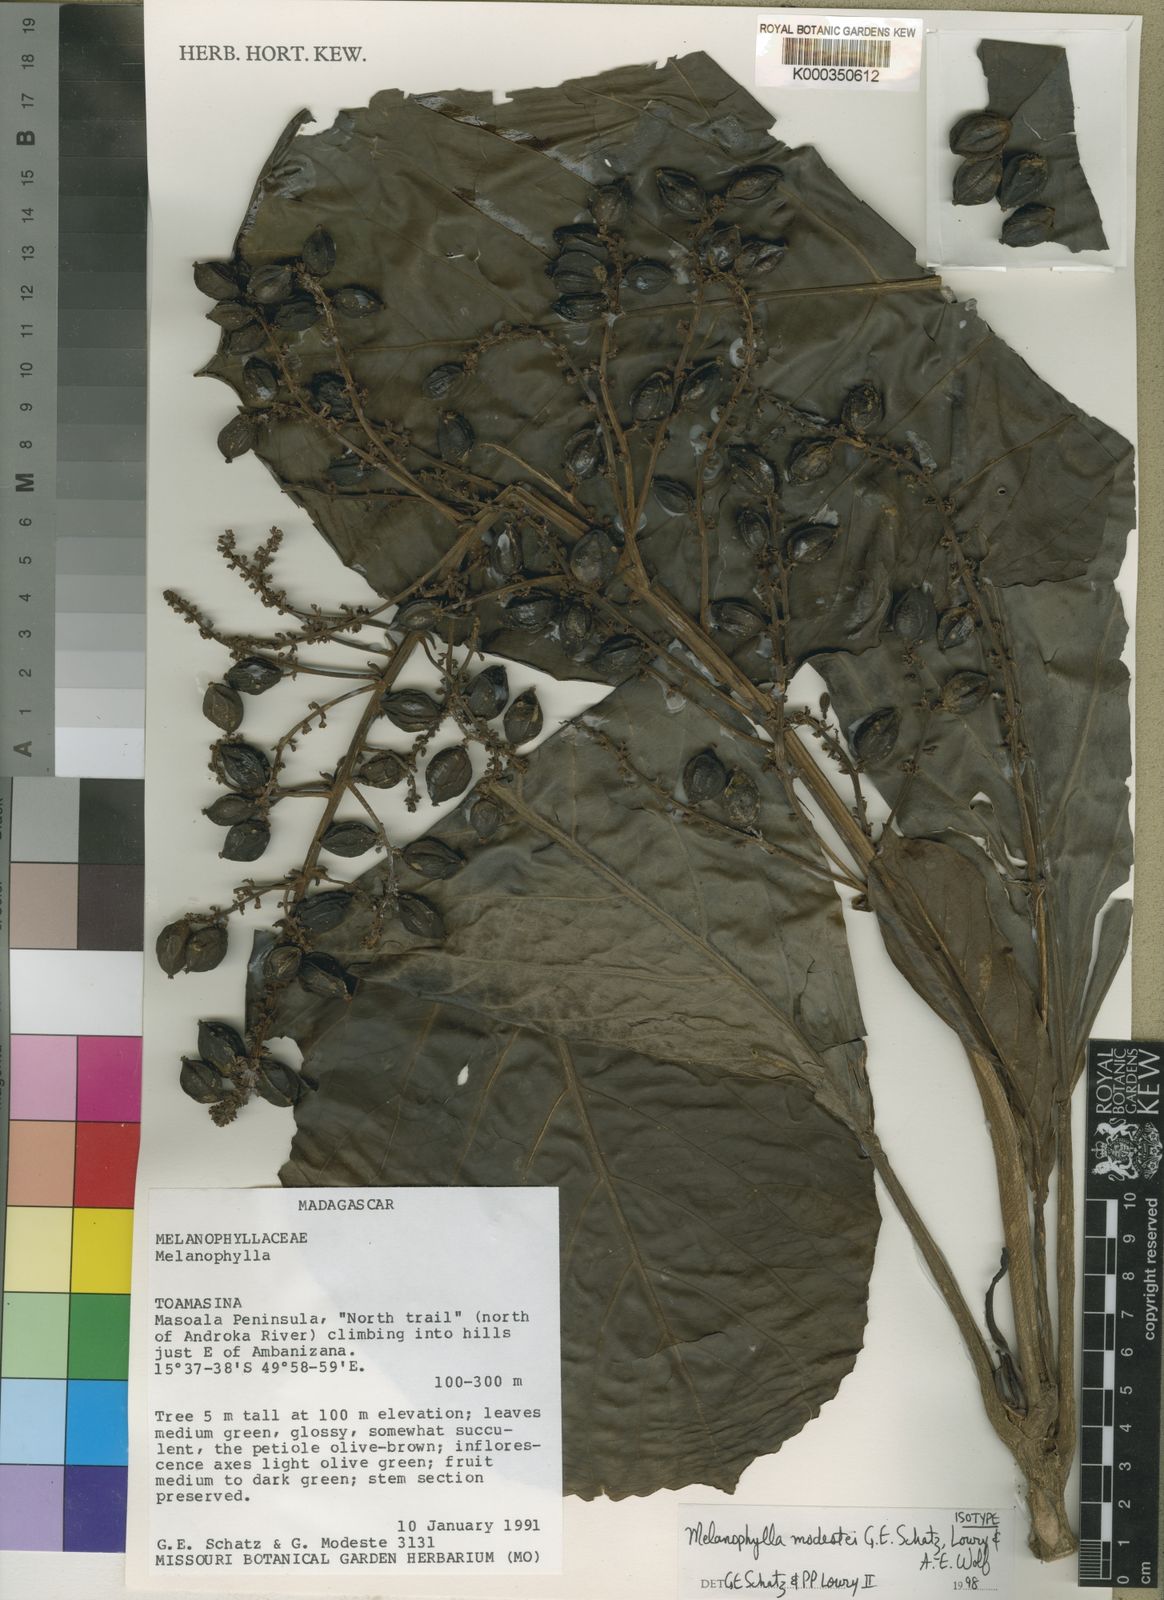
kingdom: Plantae
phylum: Tracheophyta
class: Magnoliopsida
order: Apiales
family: Torricelliaceae
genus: Melanophylla
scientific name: Melanophylla modestei
